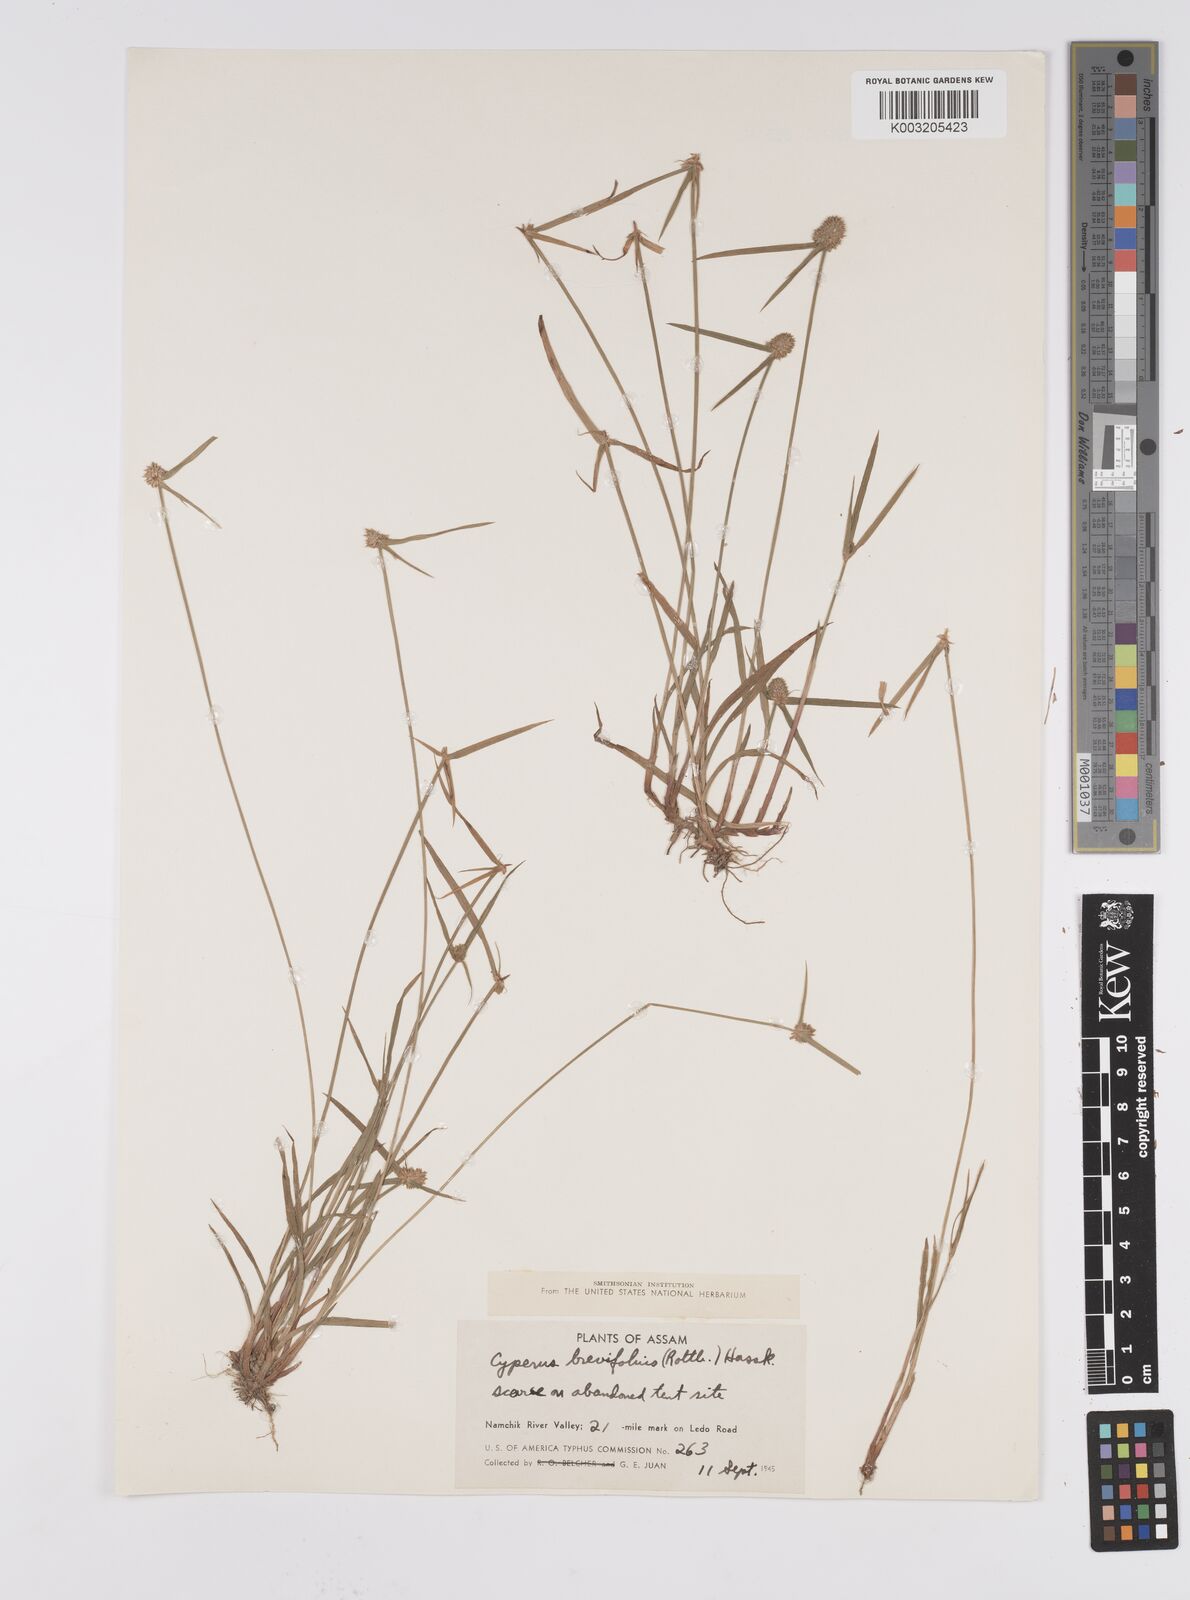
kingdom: Plantae
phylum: Tracheophyta
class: Liliopsida
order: Poales
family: Cyperaceae
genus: Cyperus
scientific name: Cyperus brevifolius
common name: Globe kyllinga
